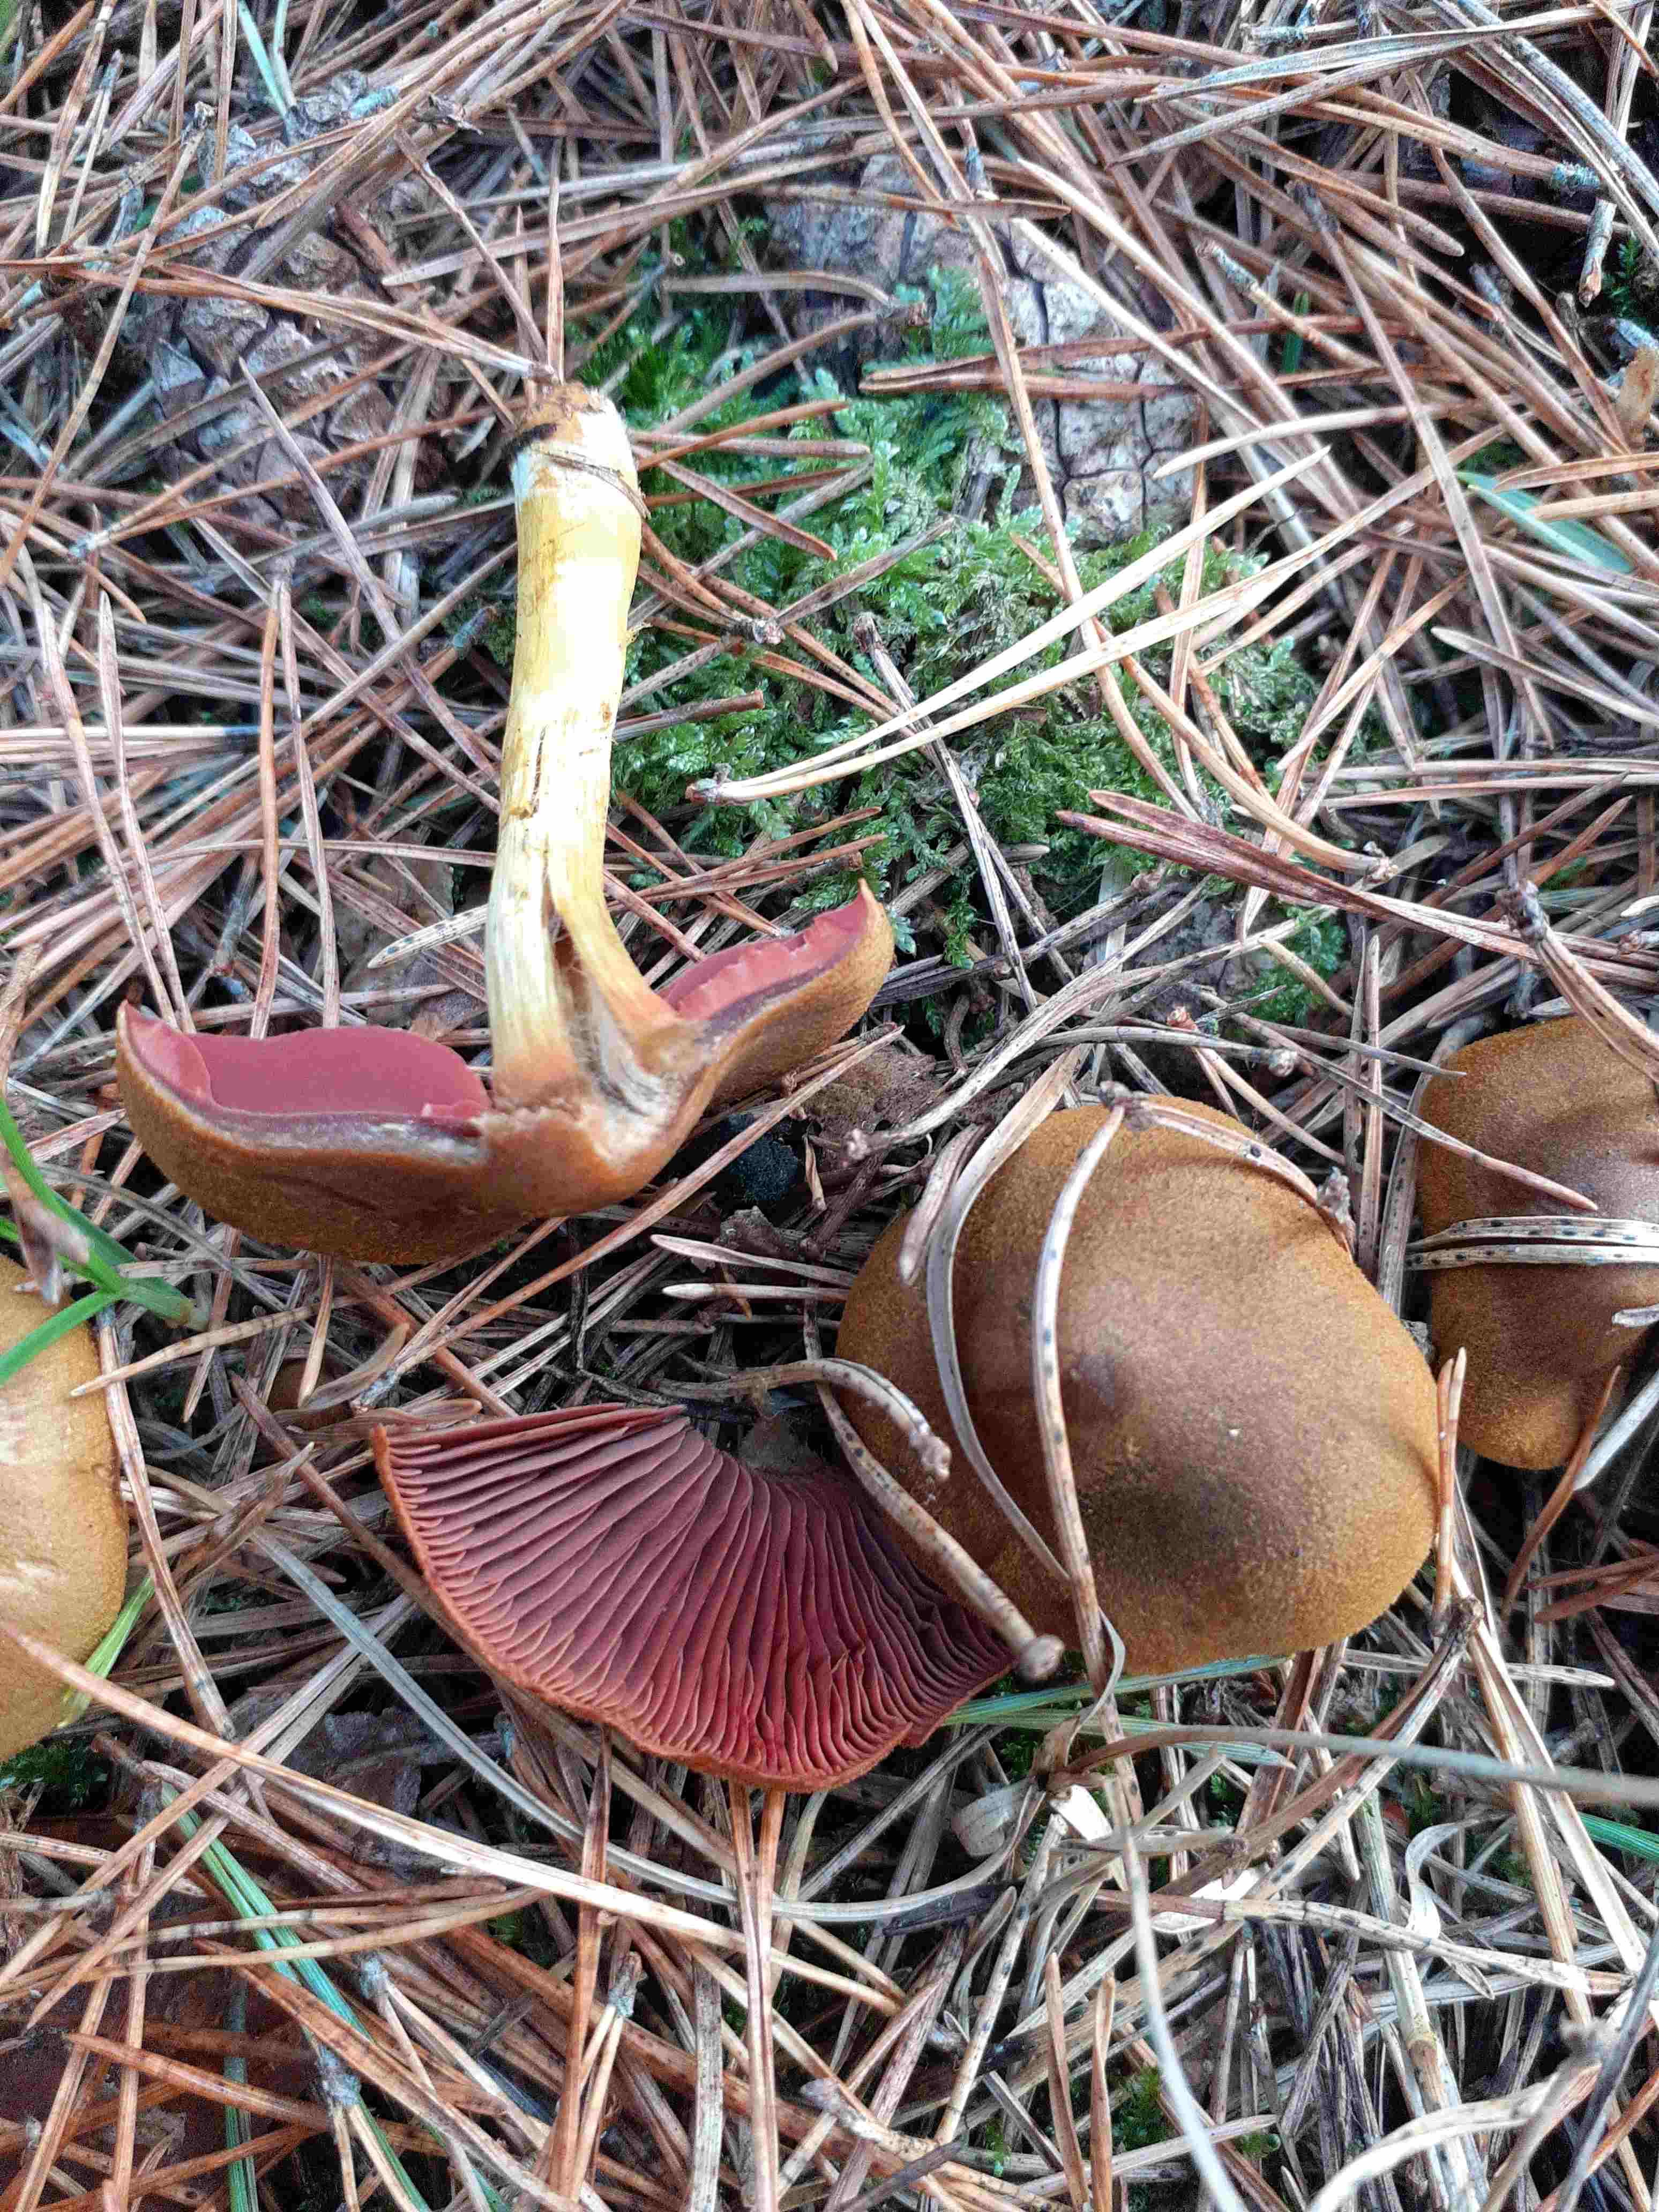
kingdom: Fungi
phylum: Basidiomycota
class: Agaricomycetes
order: Agaricales
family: Cortinariaceae
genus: Cortinarius
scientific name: Cortinarius
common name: cinnoberbladet slørhat
